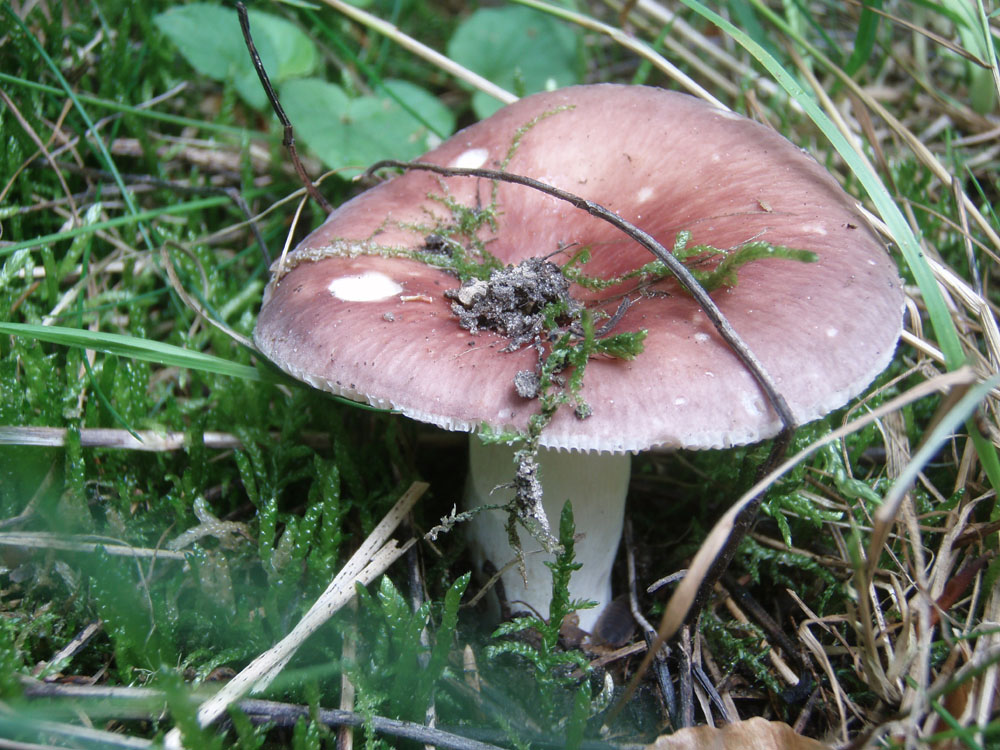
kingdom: Fungi
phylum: Basidiomycota
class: Agaricomycetes
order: Russulales
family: Russulaceae
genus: Russula
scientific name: Russula vesca
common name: spiselig skørhat
